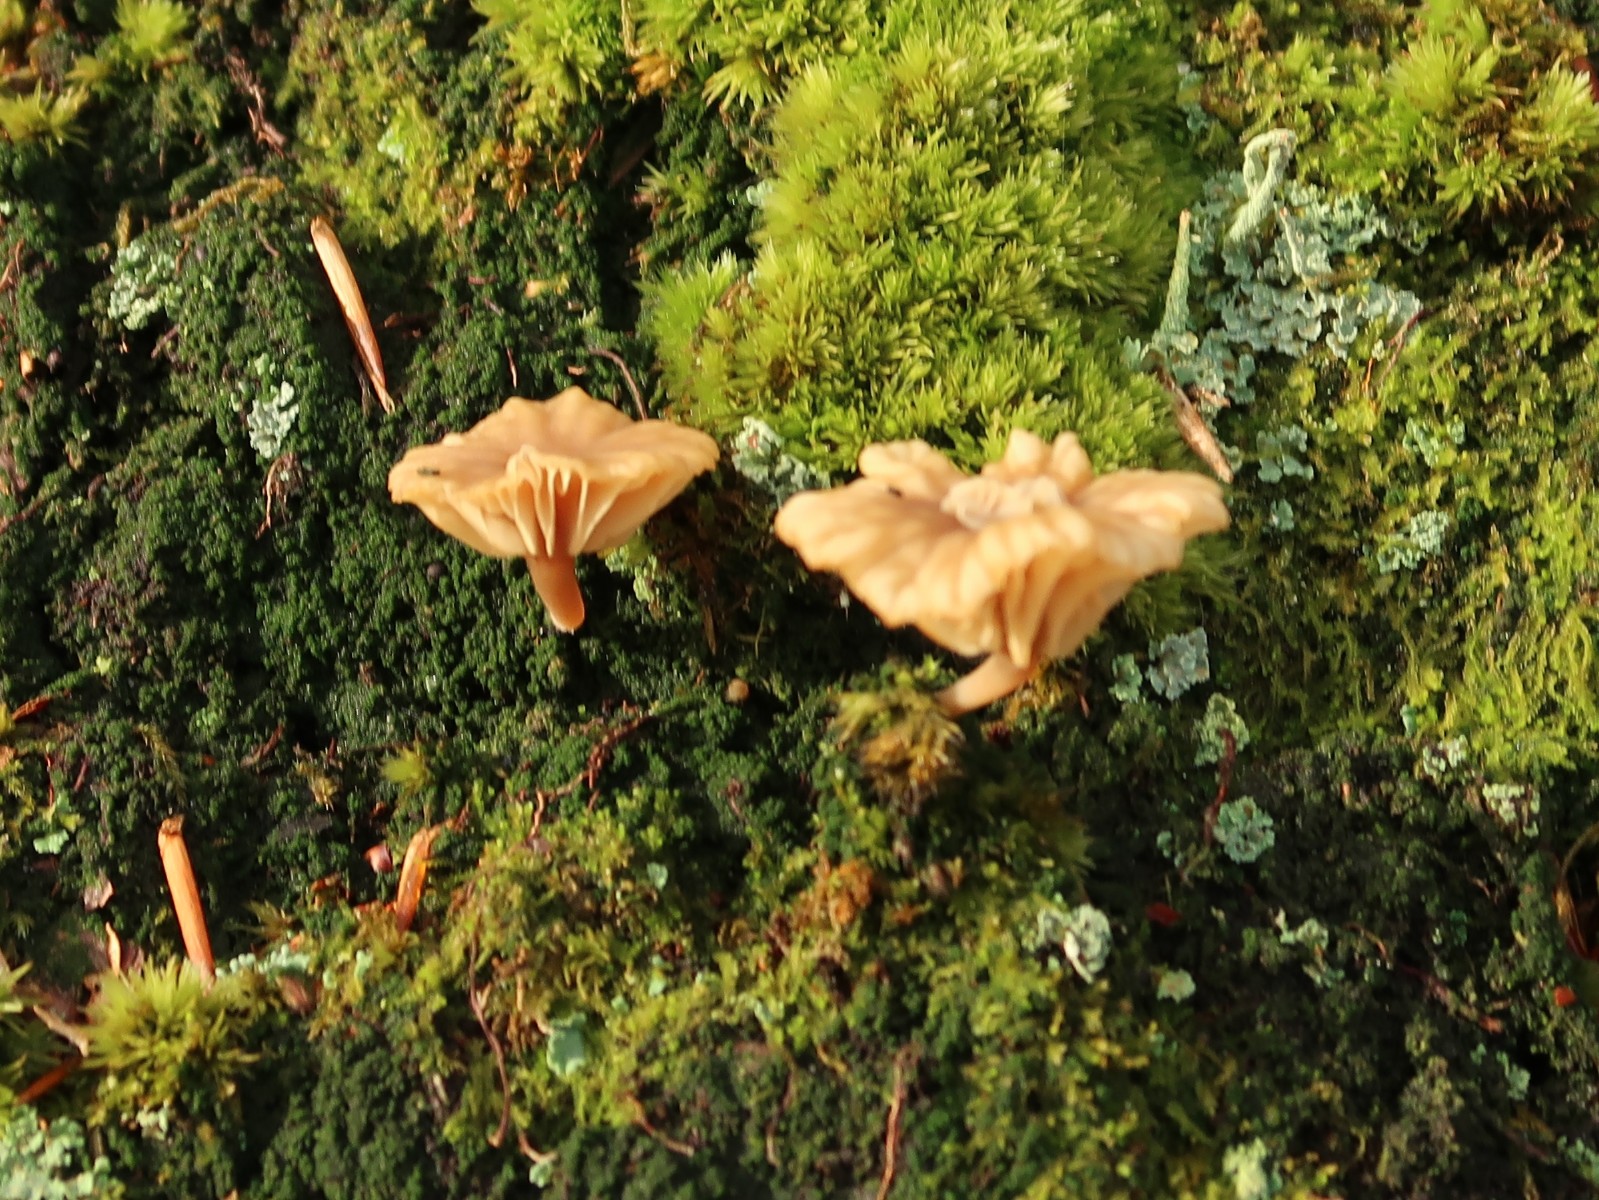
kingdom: Fungi
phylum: Basidiomycota
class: Agaricomycetes
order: Agaricales
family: Hygrophoraceae
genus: Lichenomphalia
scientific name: Lichenomphalia umbellifera
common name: tørve-lavhat
